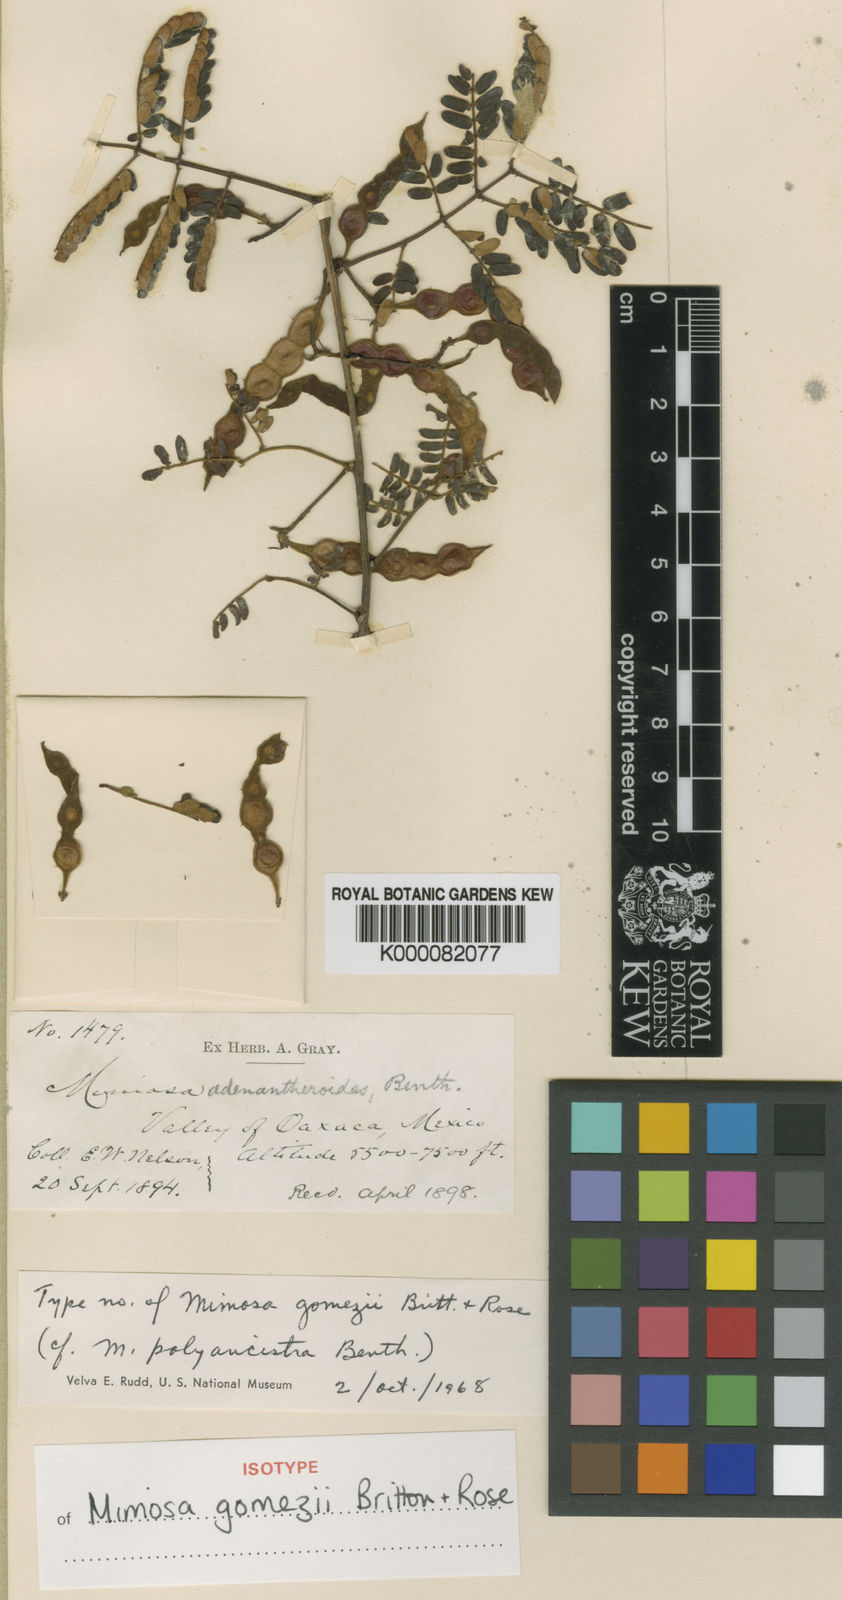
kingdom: Plantae
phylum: Tracheophyta
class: Magnoliopsida
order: Fabales
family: Fabaceae
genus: Mimosa
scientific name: Mimosa adenantheroides
